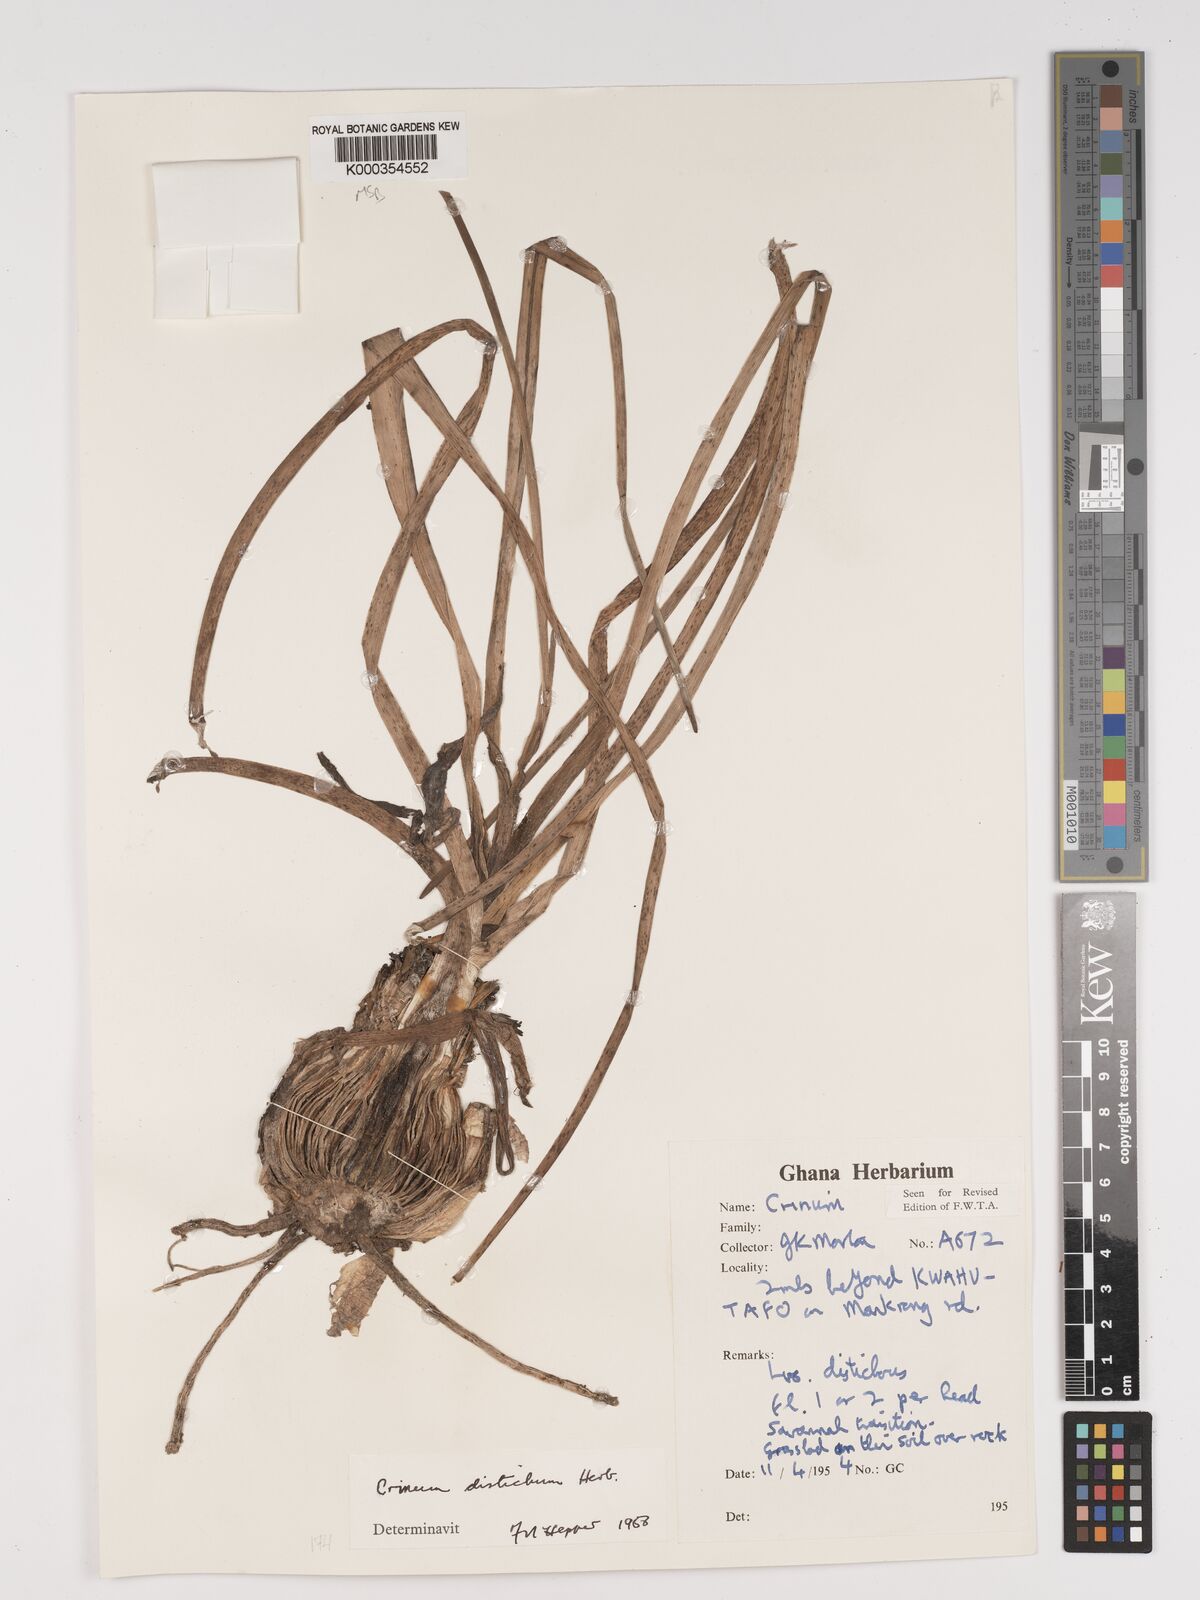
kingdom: Plantae
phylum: Tracheophyta
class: Liliopsida
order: Asparagales
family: Amaryllidaceae
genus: Crinum
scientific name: Crinum zeylanicum
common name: Ceylon swamplily
